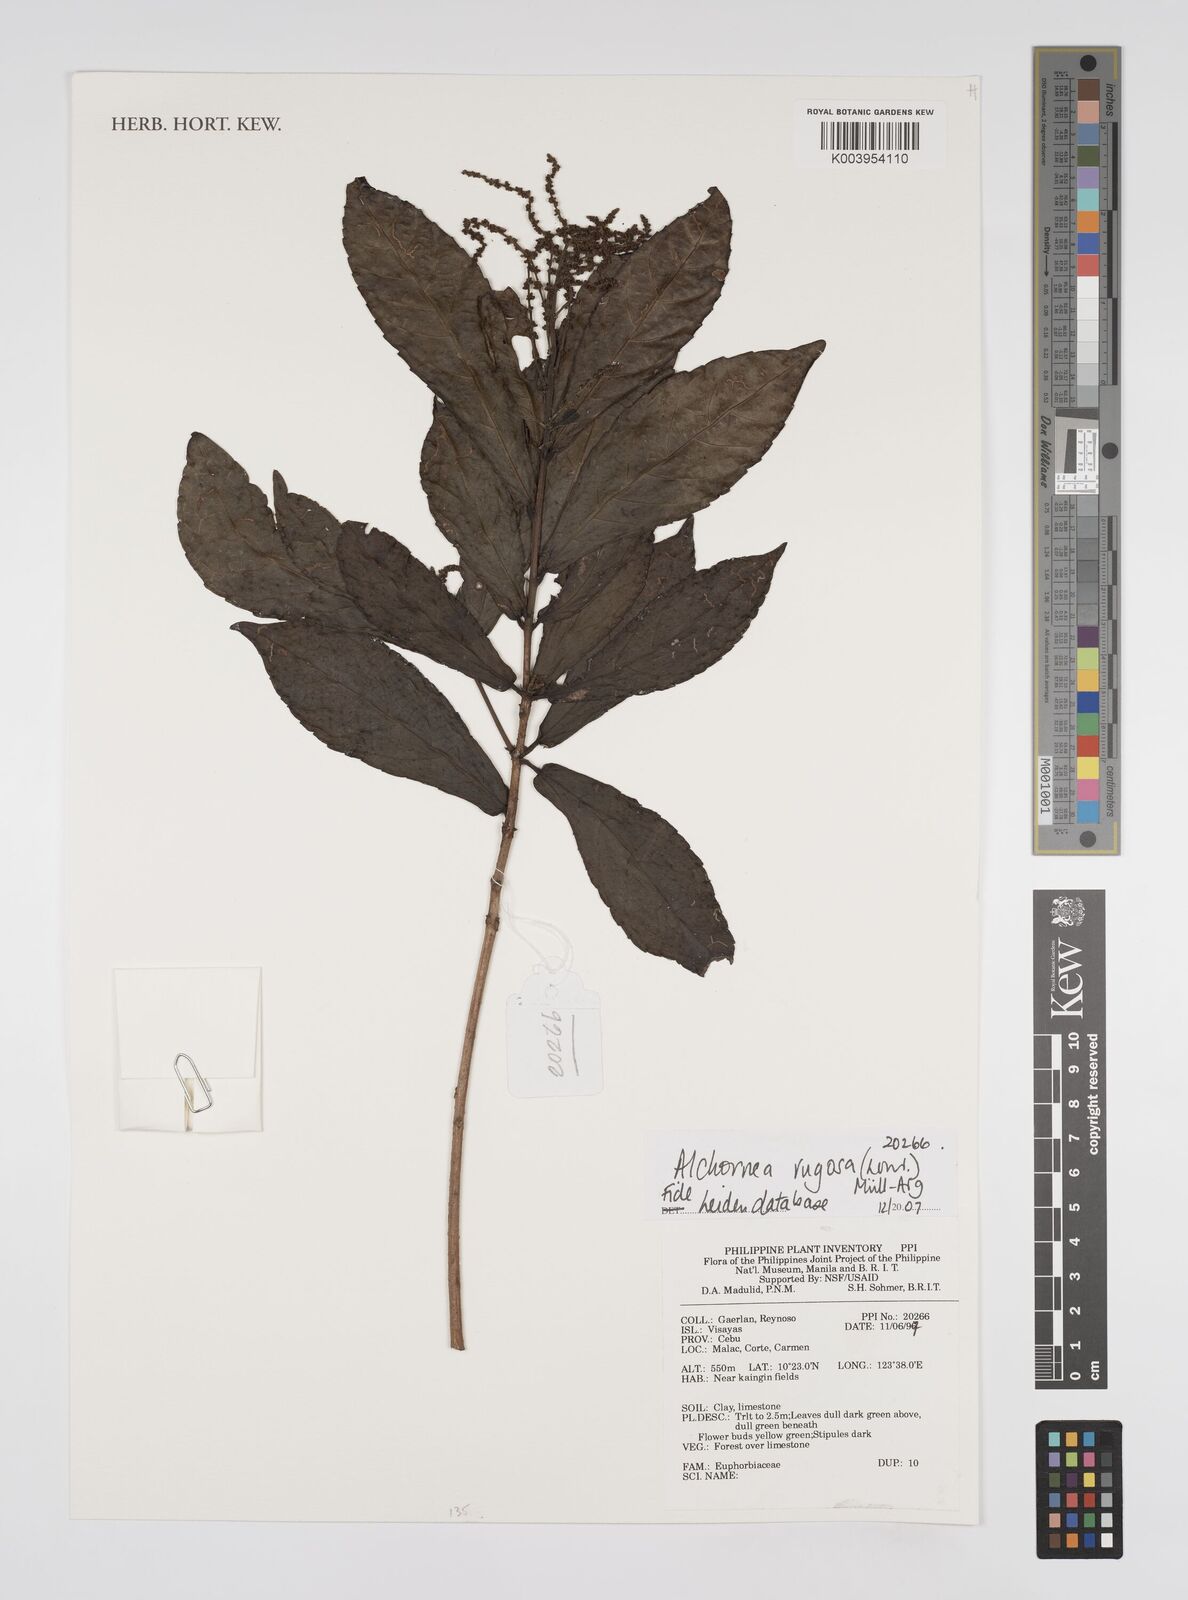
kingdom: Plantae
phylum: Tracheophyta
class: Magnoliopsida
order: Malpighiales
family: Euphorbiaceae
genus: Alchornea
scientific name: Alchornea rugosa
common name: Alchorntree
